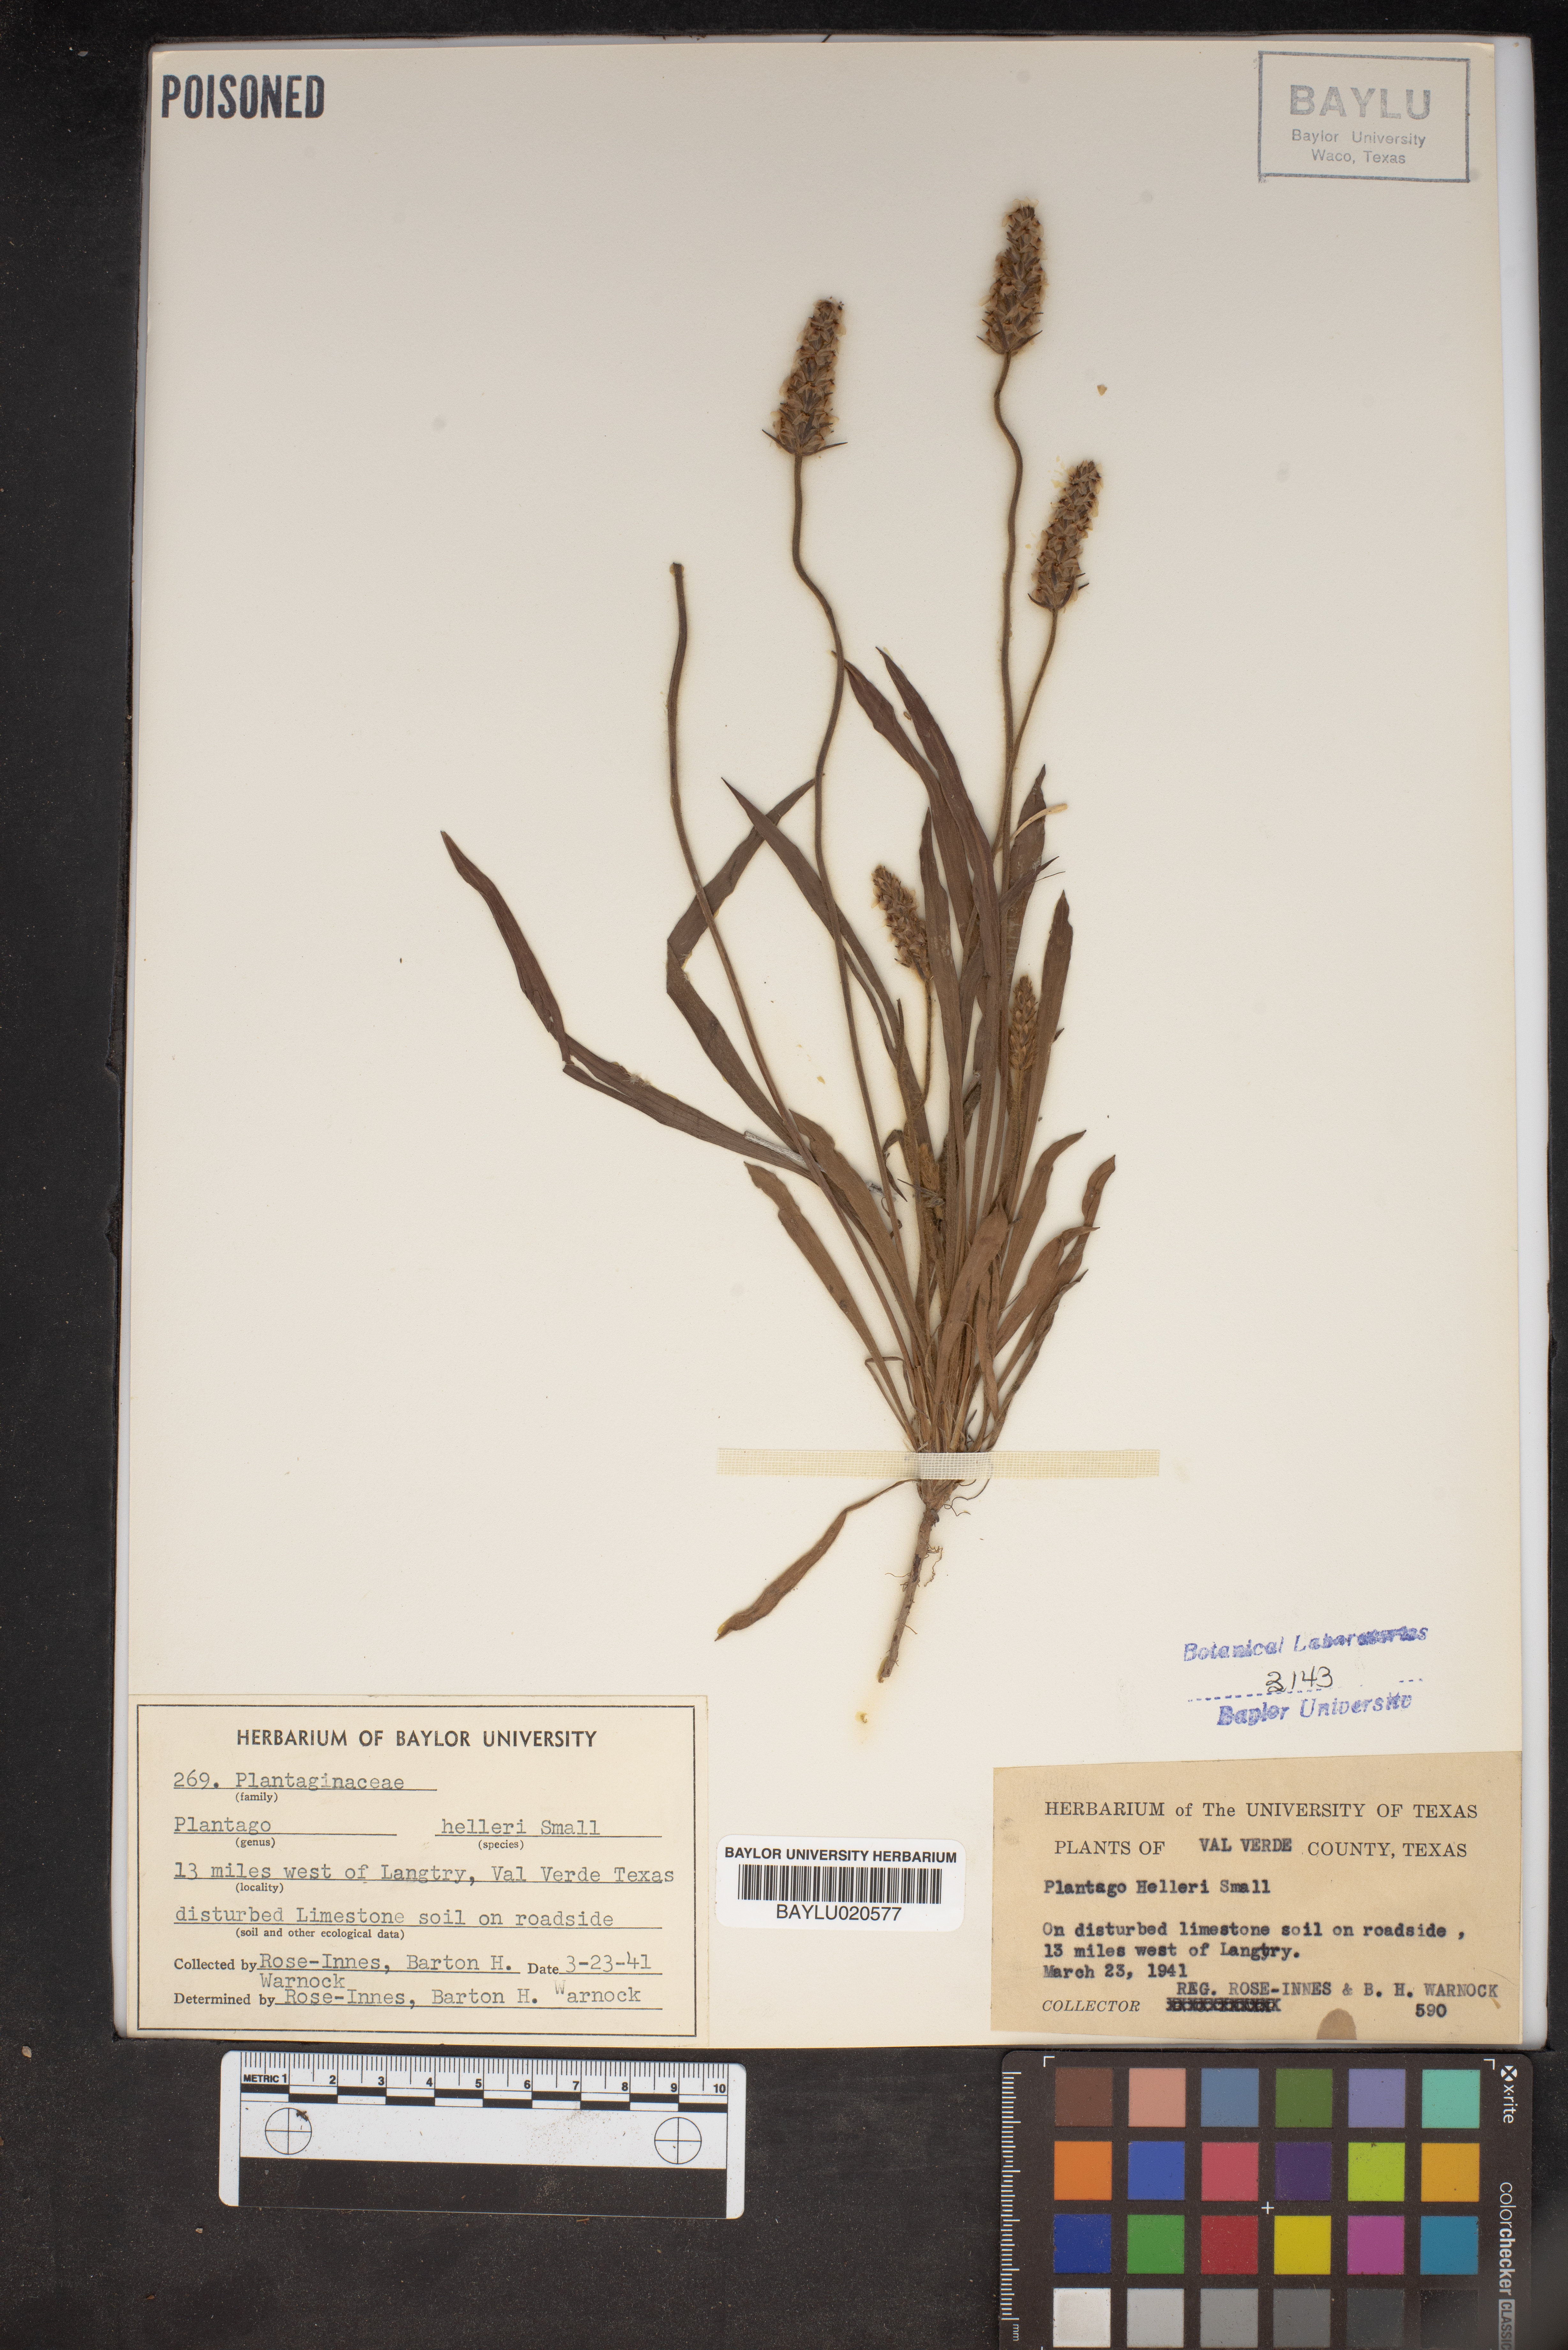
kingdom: Plantae
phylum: Tracheophyta
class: Magnoliopsida
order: Lamiales
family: Plantaginaceae
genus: Plantago
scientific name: Plantago helleri
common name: Heller's plantain
